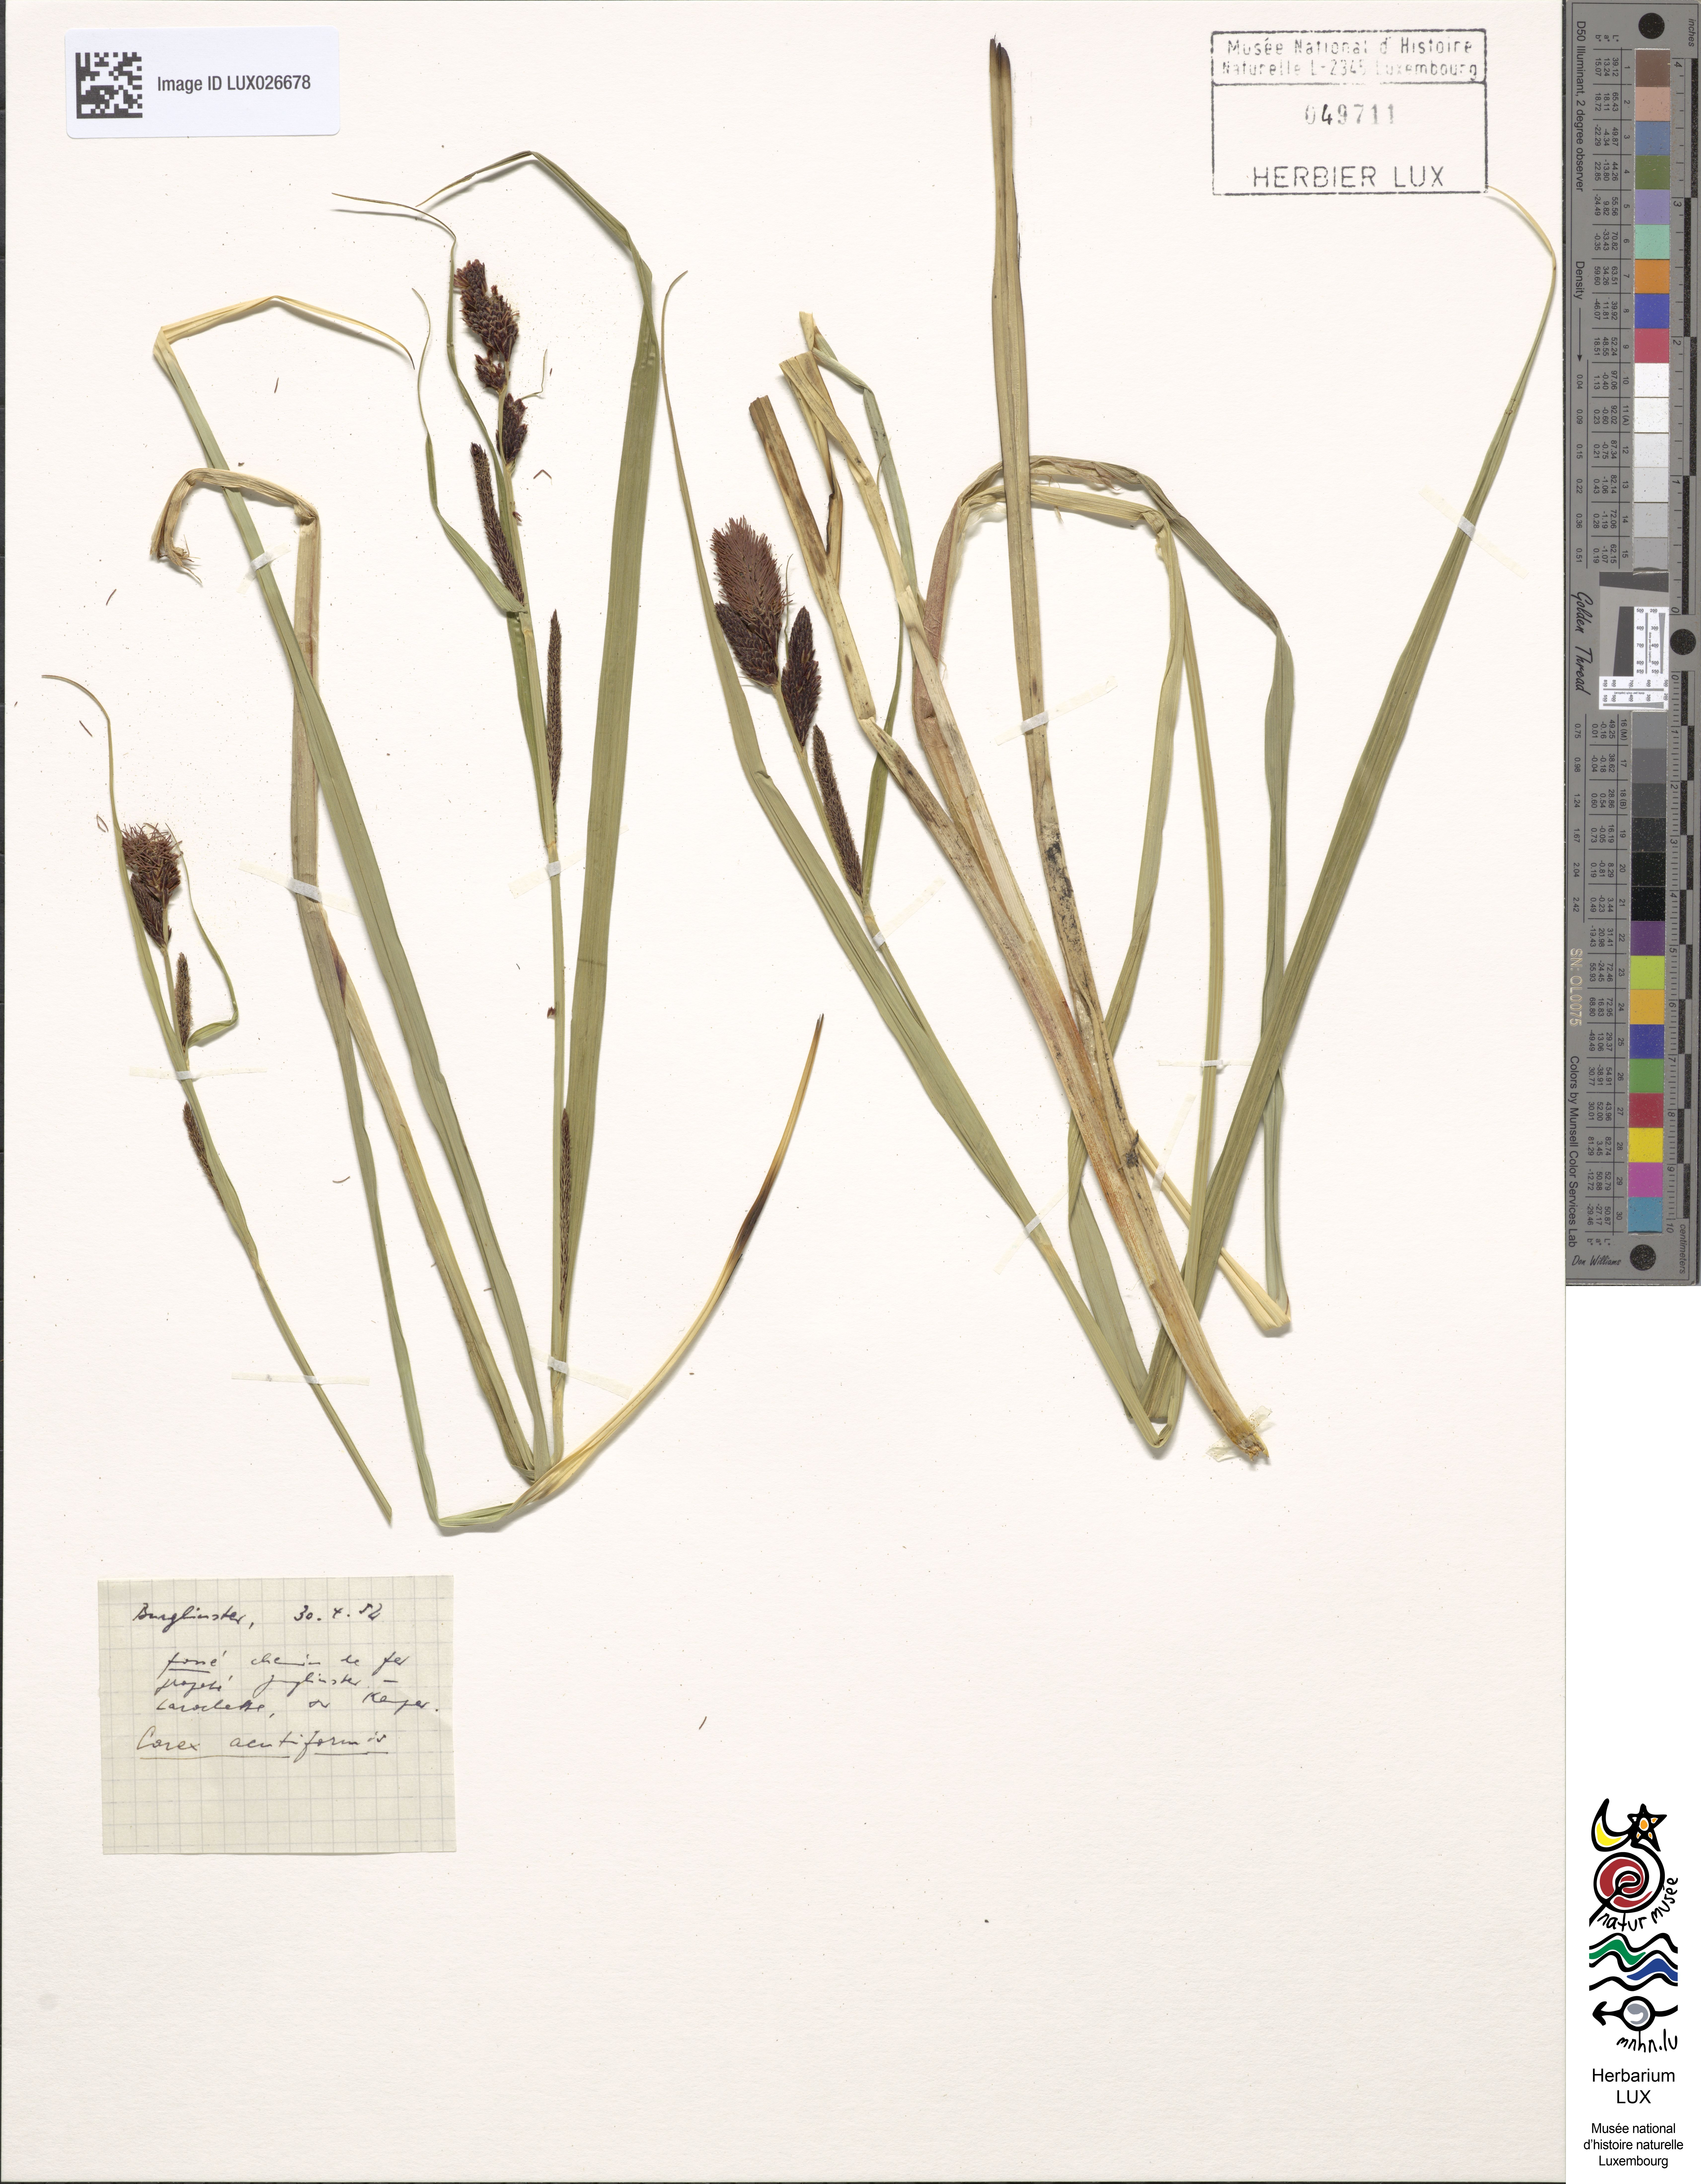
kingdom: Plantae
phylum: Tracheophyta
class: Liliopsida
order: Poales
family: Cyperaceae
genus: Carex
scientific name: Carex acutiformis
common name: Lesser pond-sedge
